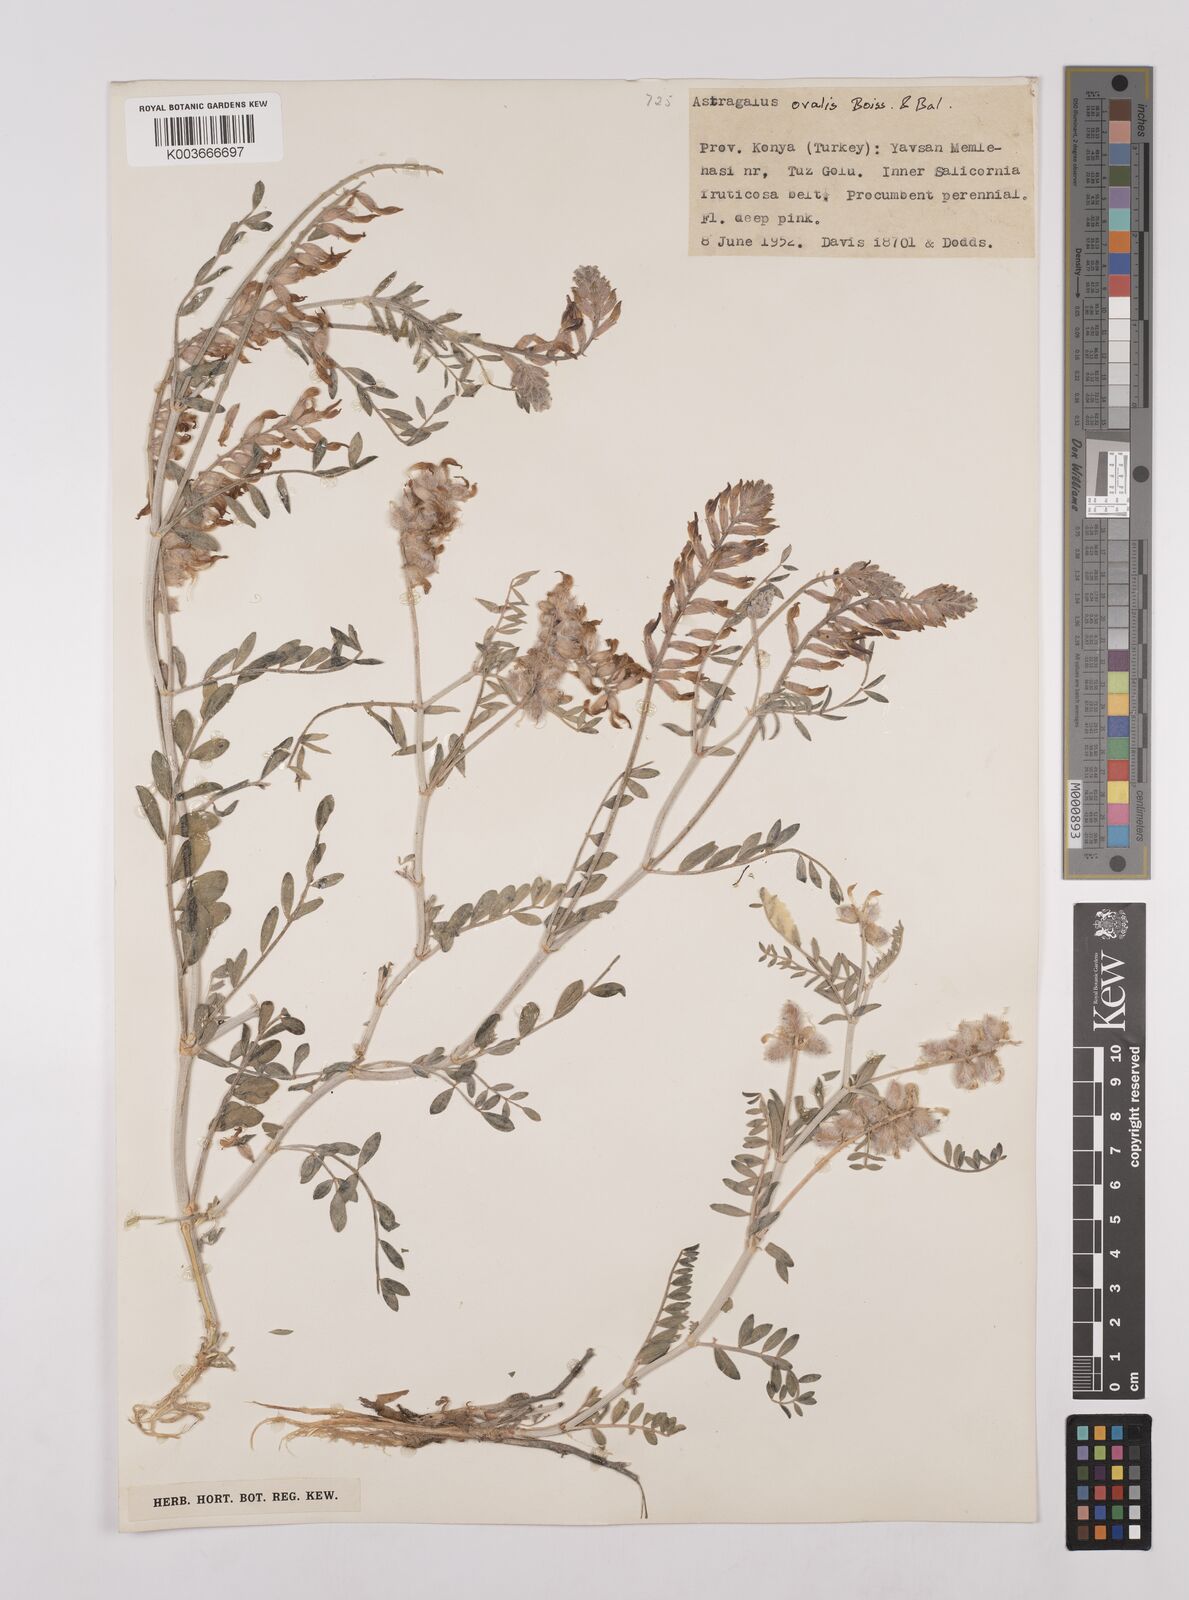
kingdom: Plantae
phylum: Tracheophyta
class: Magnoliopsida
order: Fabales
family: Fabaceae
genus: Astragalus
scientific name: Astragalus ovalis
